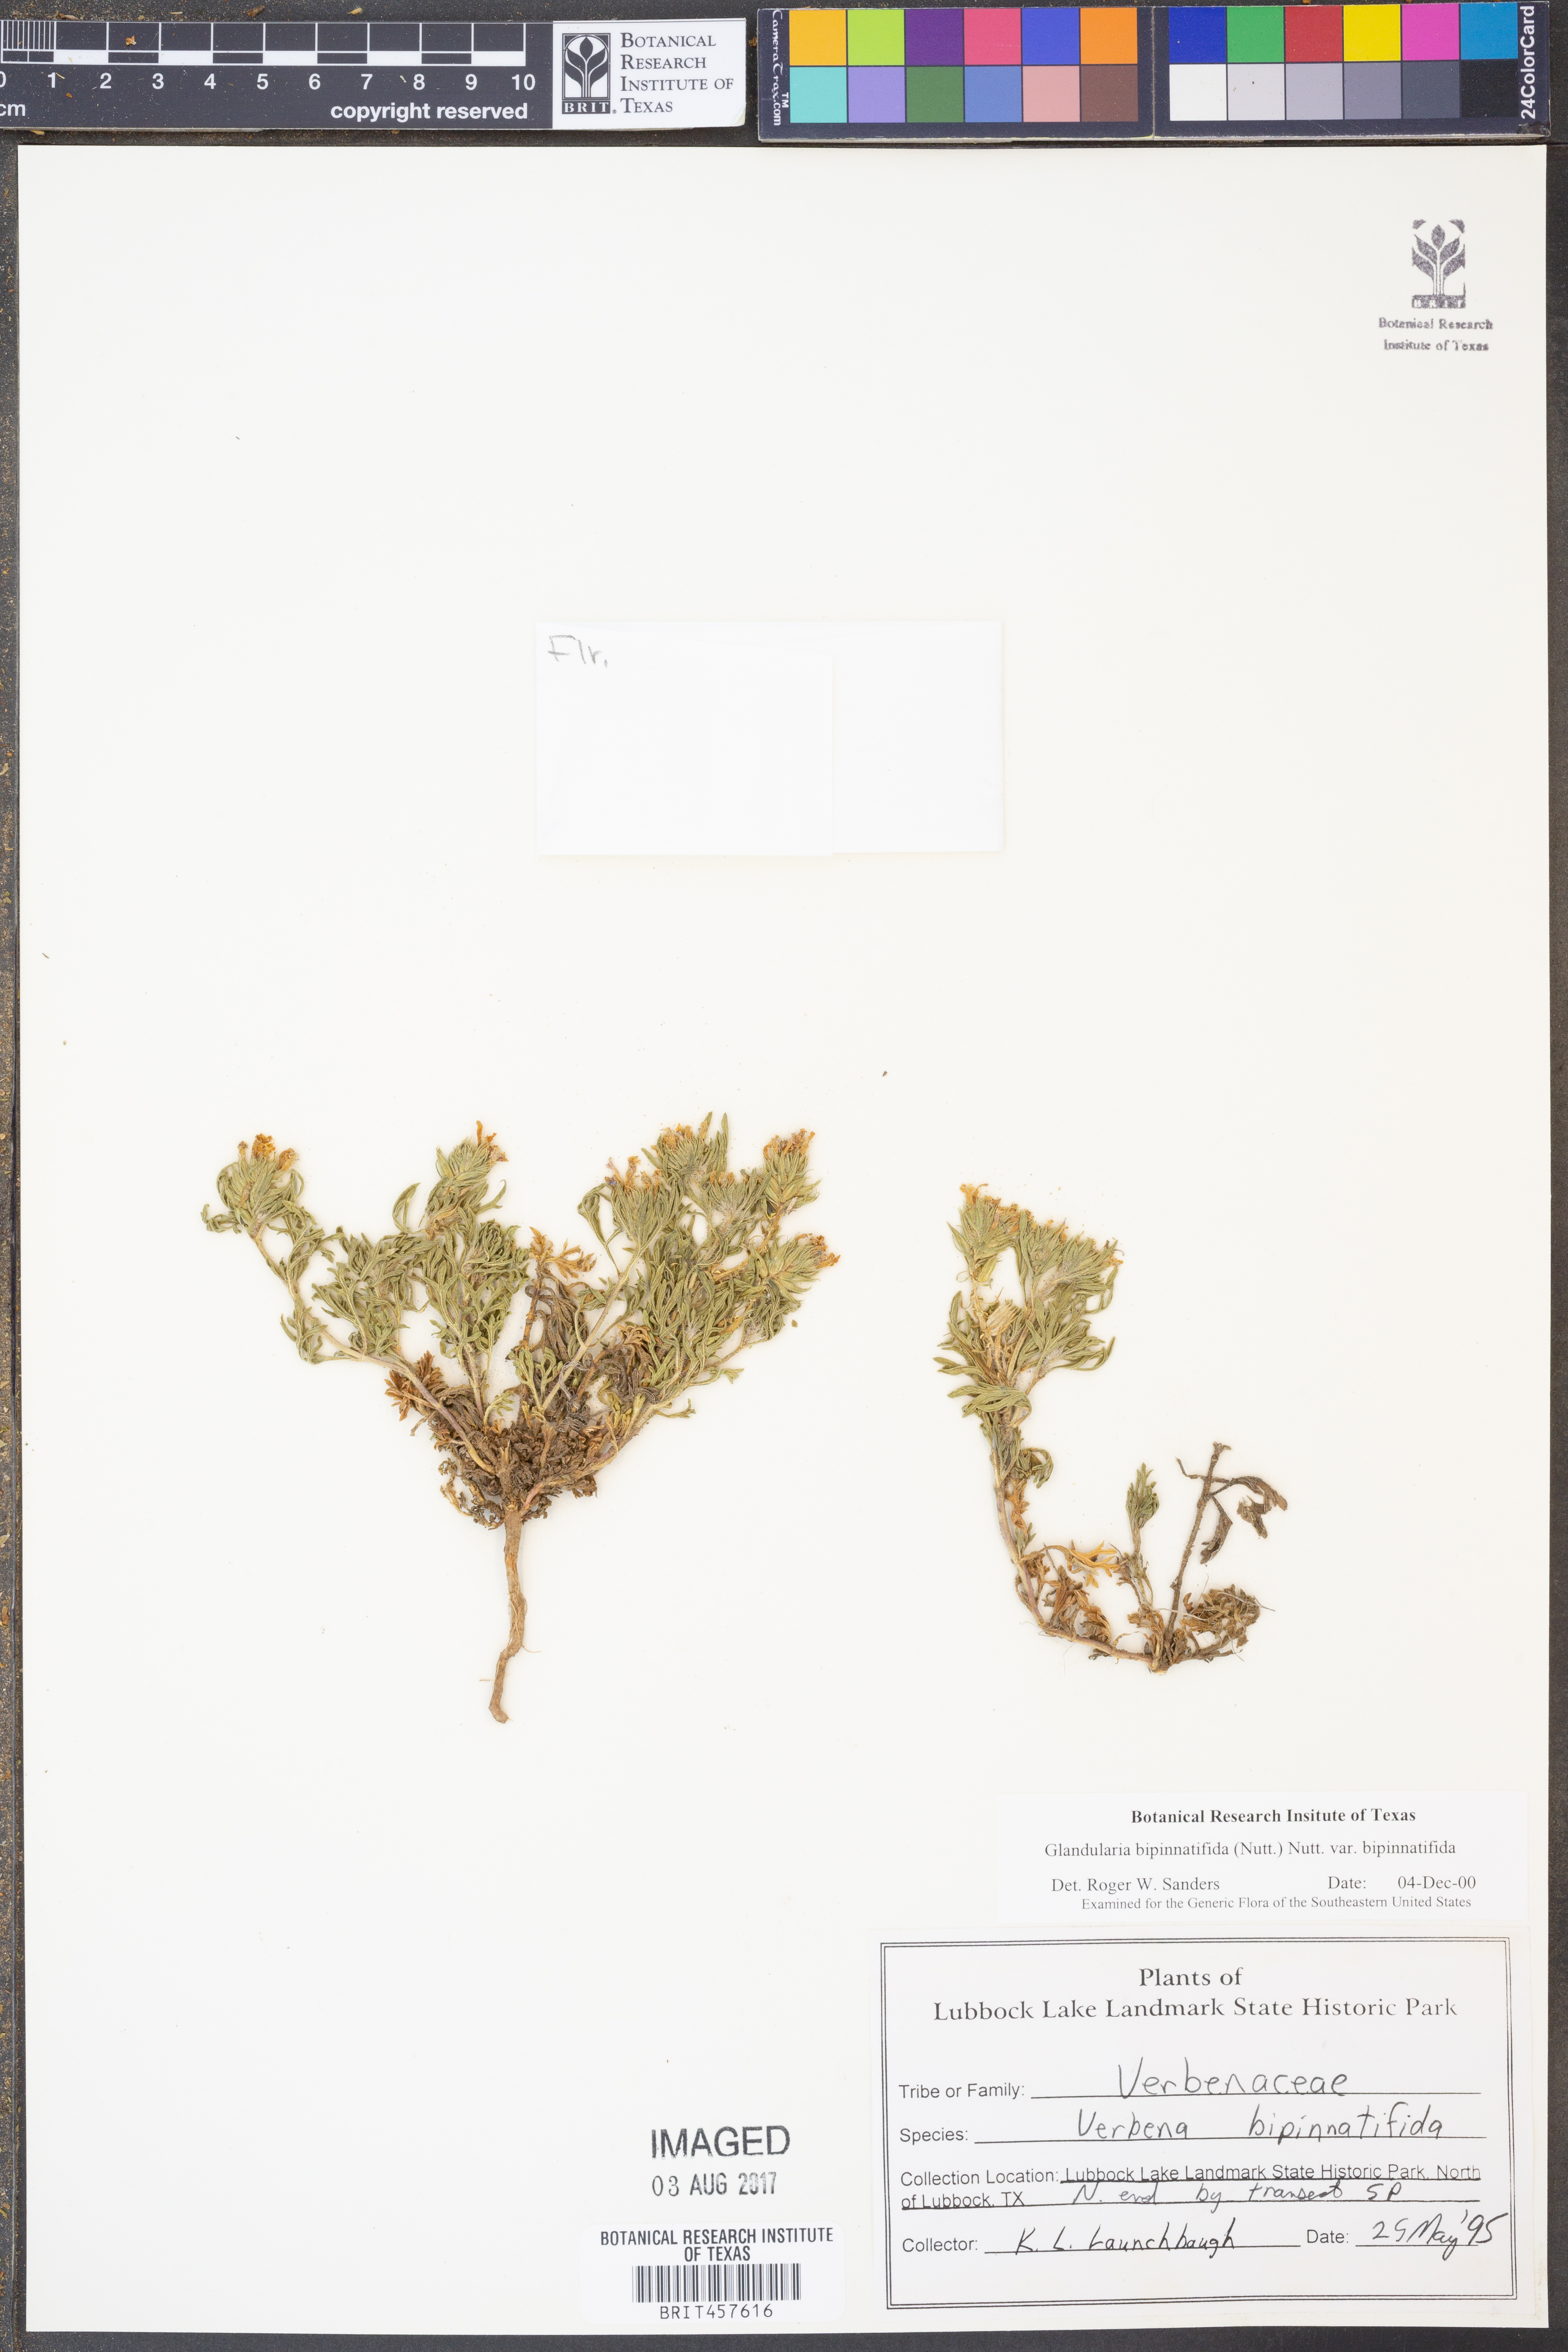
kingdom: Plantae
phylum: Tracheophyta
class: Magnoliopsida
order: Lamiales
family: Verbenaceae
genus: Verbena
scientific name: Verbena bipinnatifida
